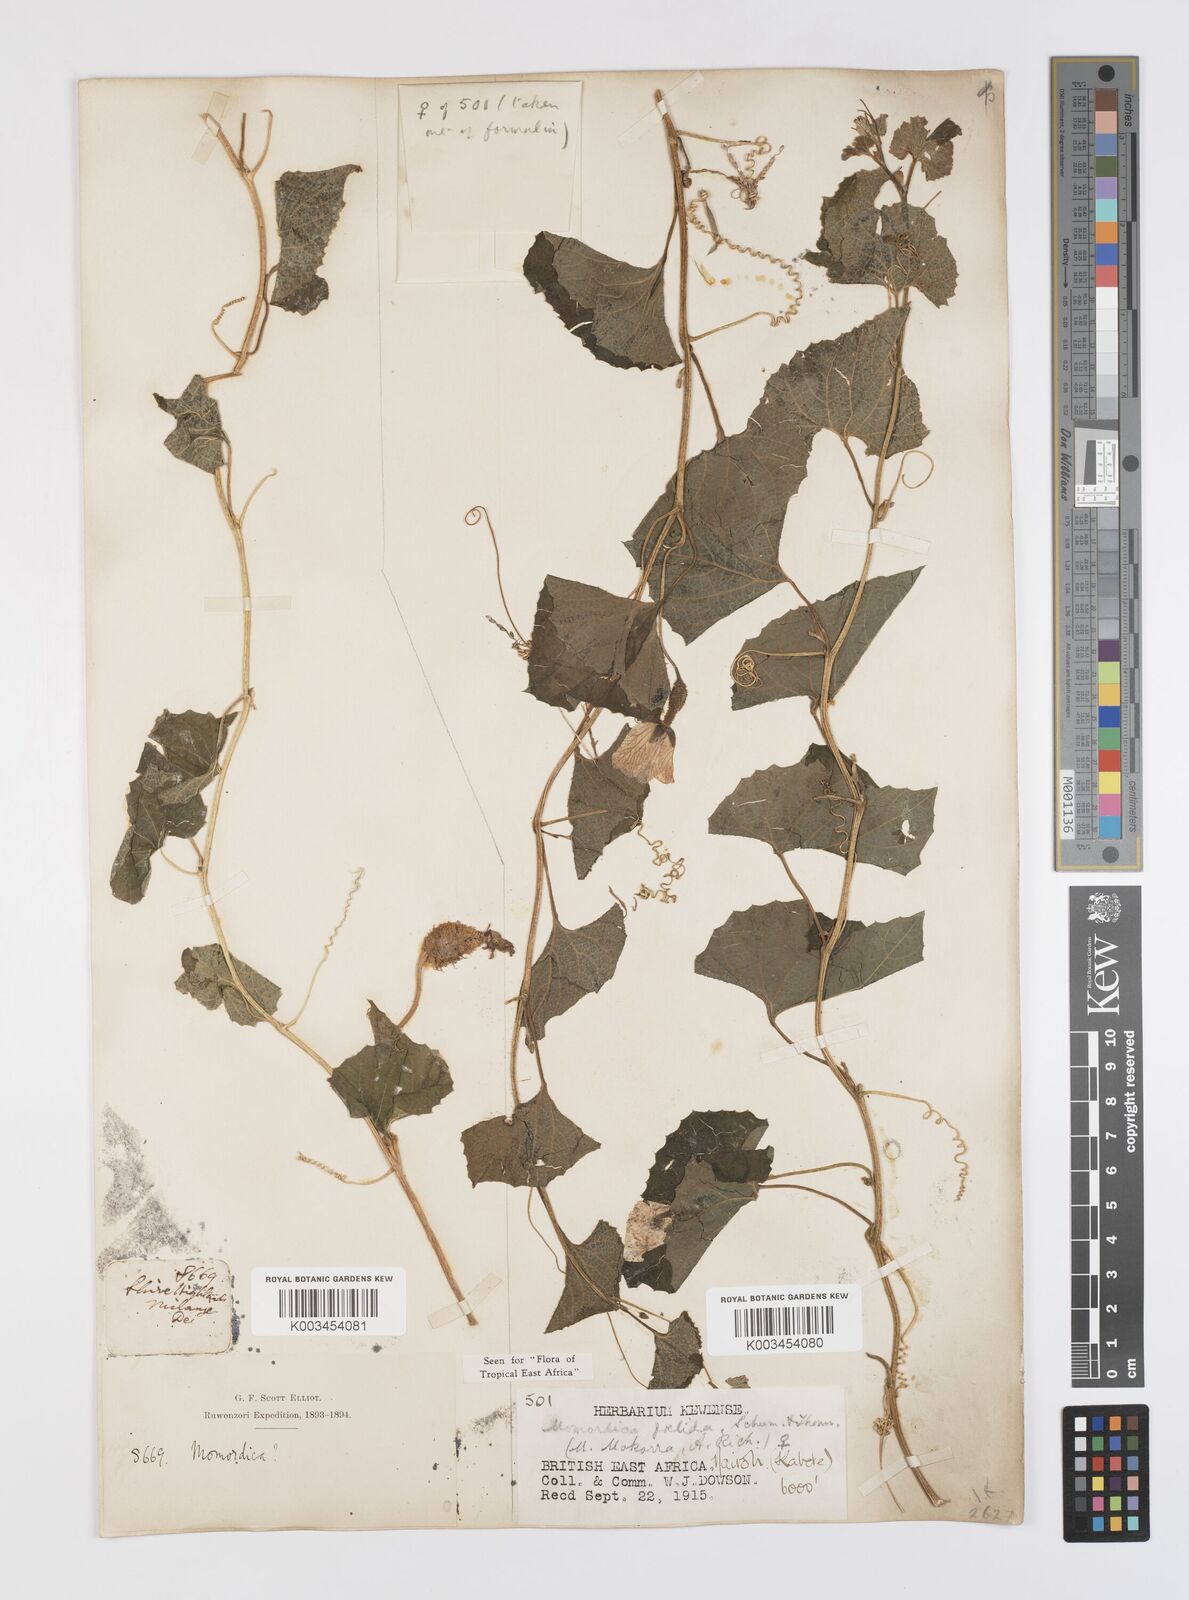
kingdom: Plantae
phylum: Tracheophyta
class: Magnoliopsida
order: Cucurbitales
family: Cucurbitaceae
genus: Momordica
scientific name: Momordica foetida
